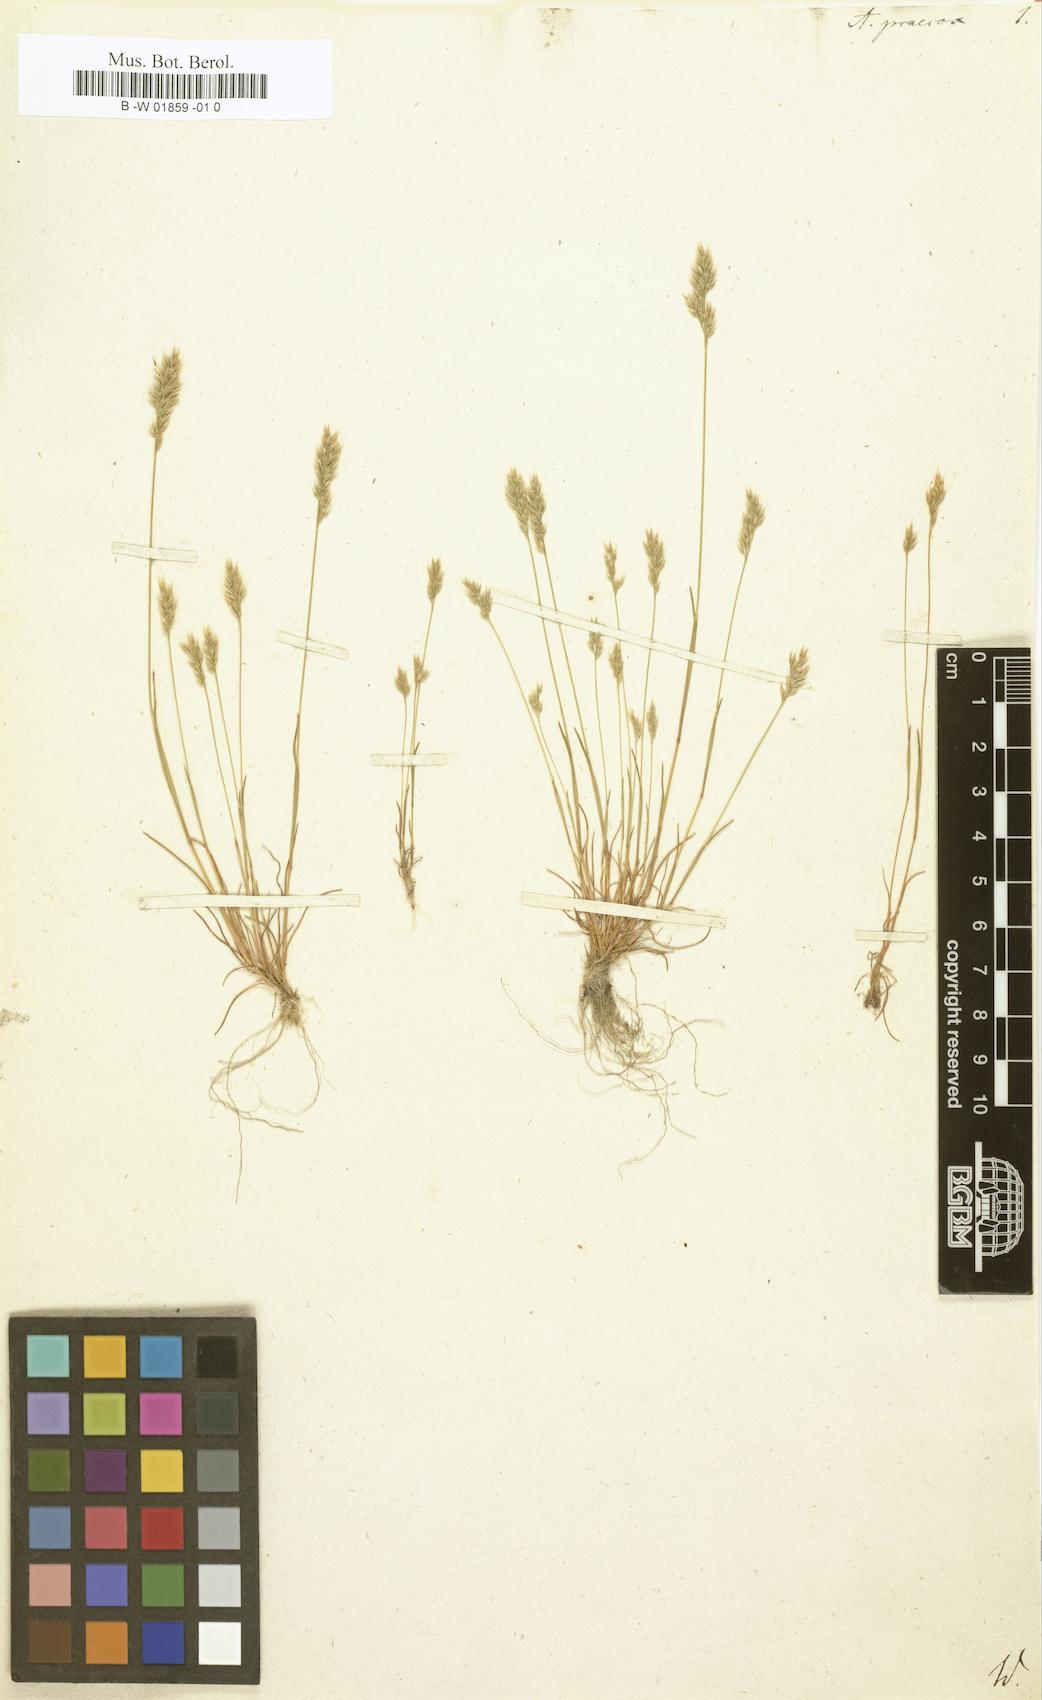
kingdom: Plantae
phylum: Tracheophyta
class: Liliopsida
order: Poales
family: Poaceae
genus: Aira
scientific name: Aira praecox
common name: Early hair-grass
